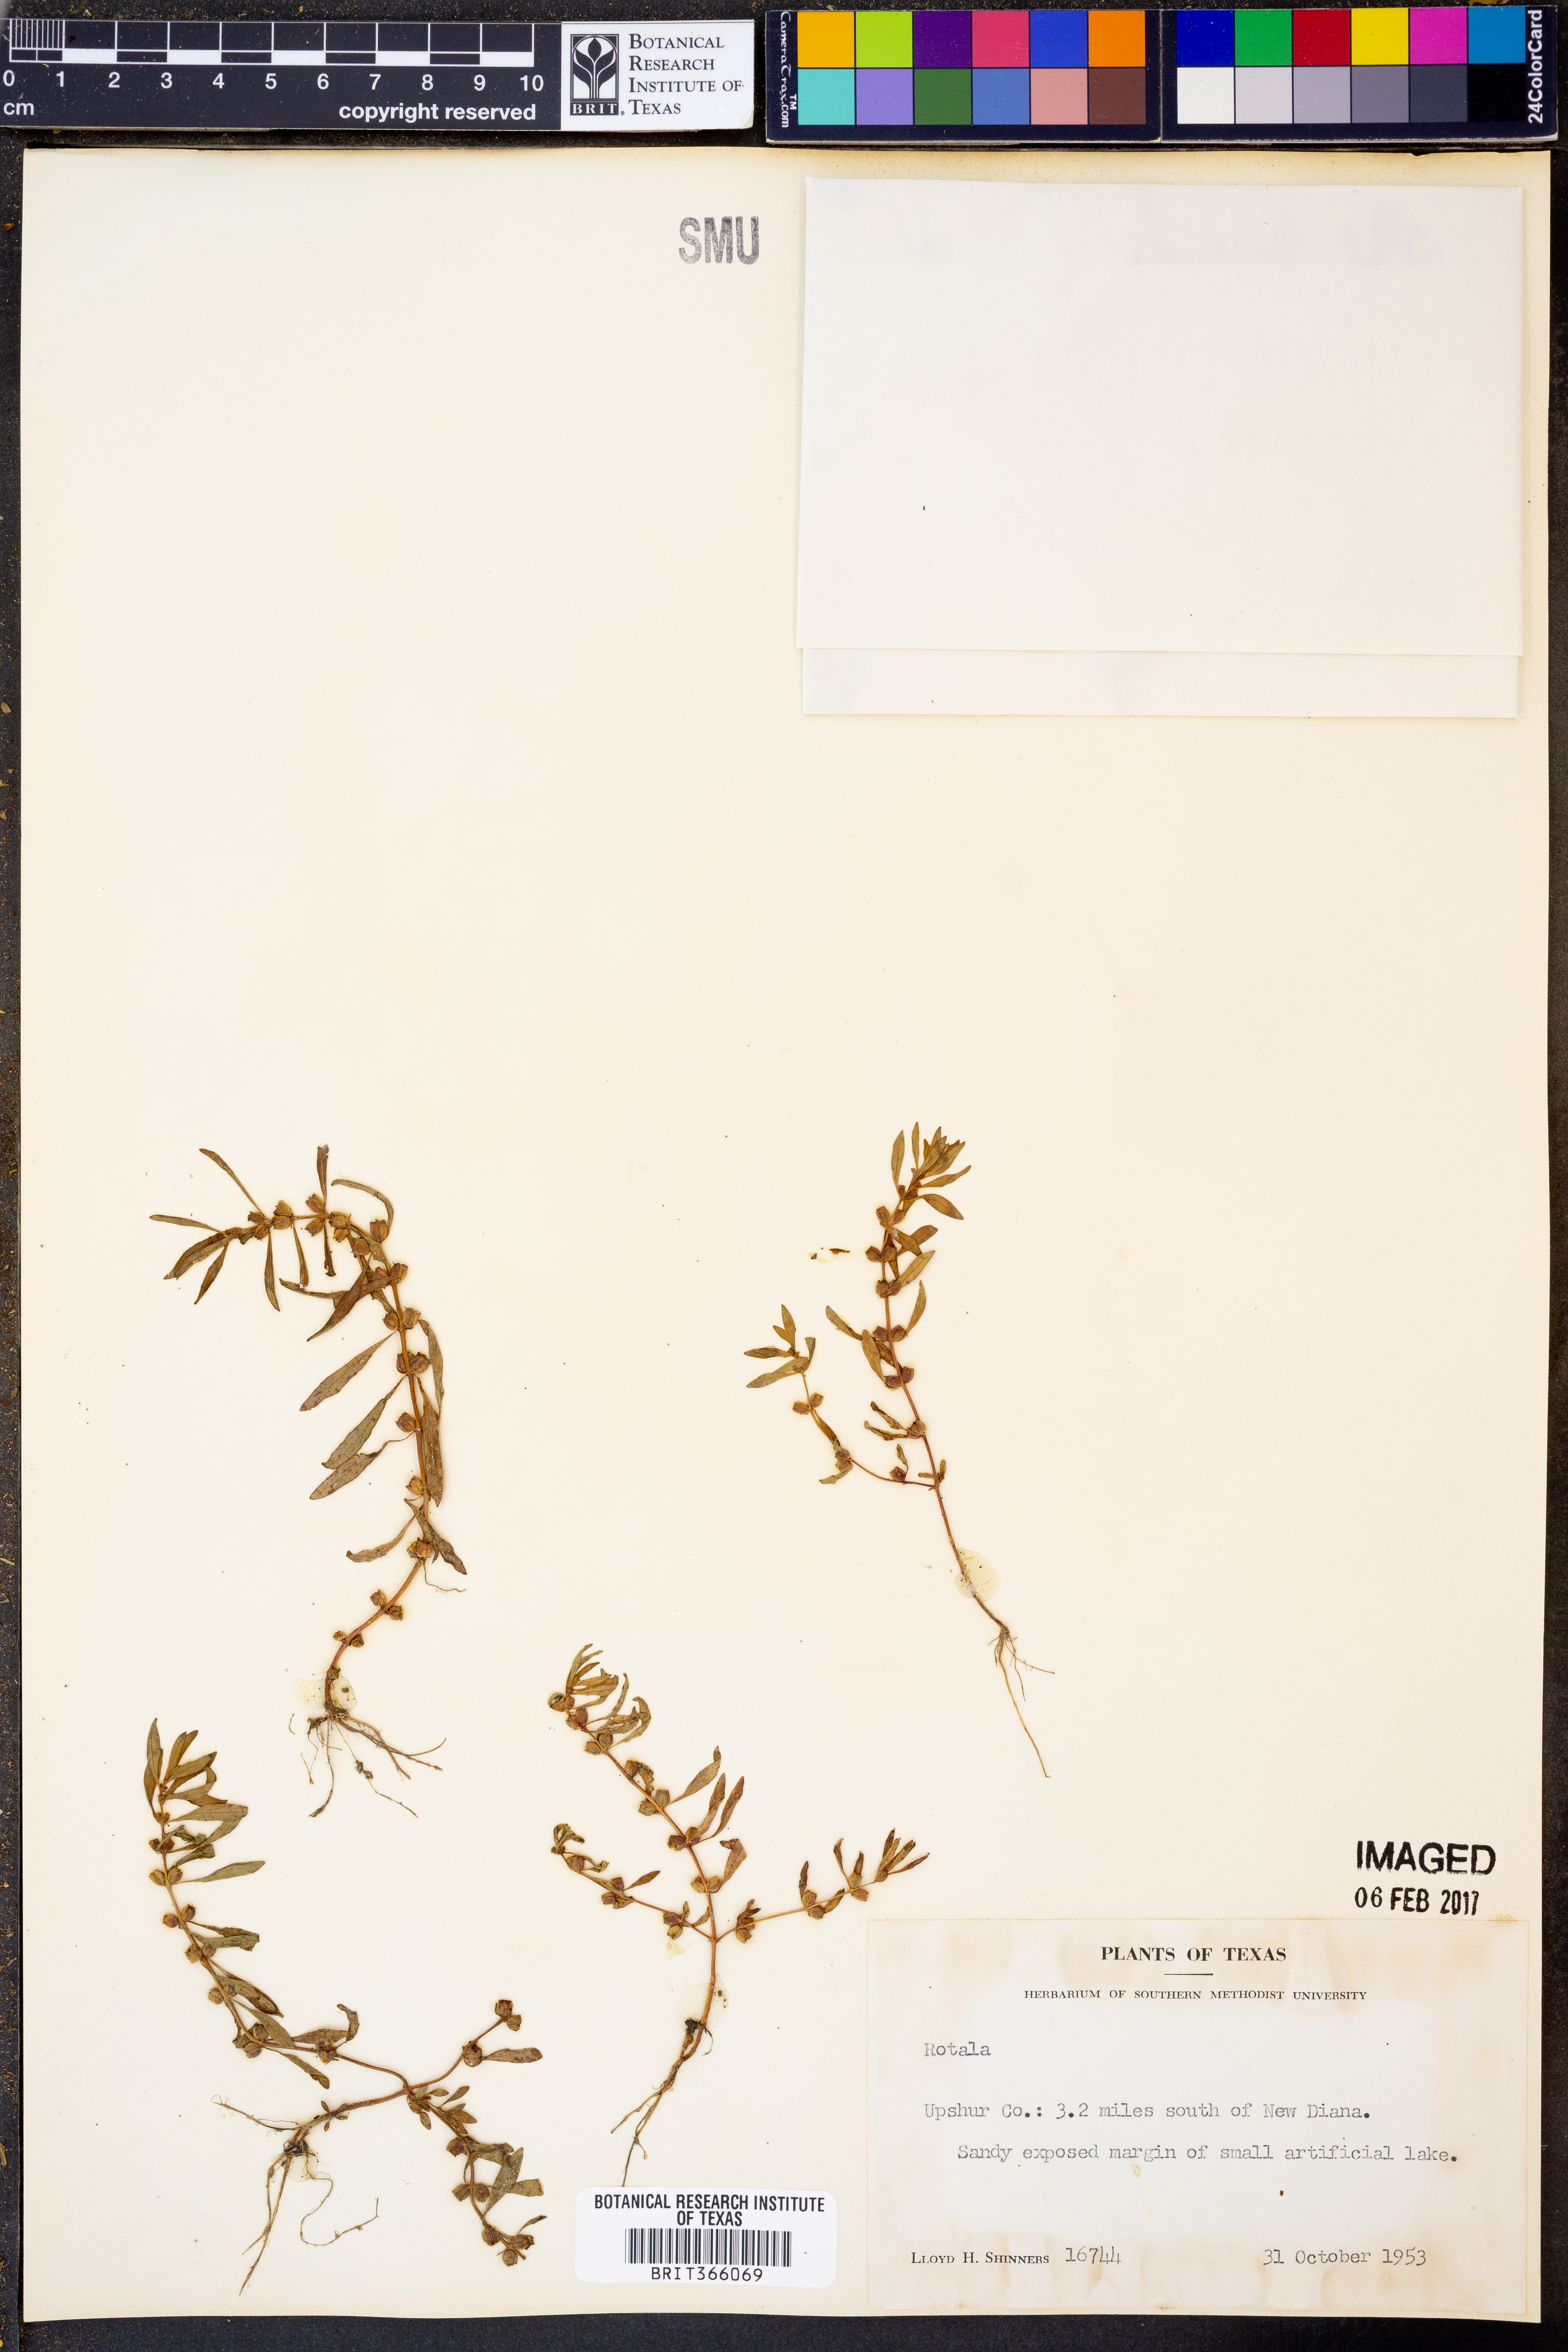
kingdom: Plantae
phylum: Tracheophyta
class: Magnoliopsida
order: Myrtales
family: Lythraceae
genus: Rotala
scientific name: Rotala
